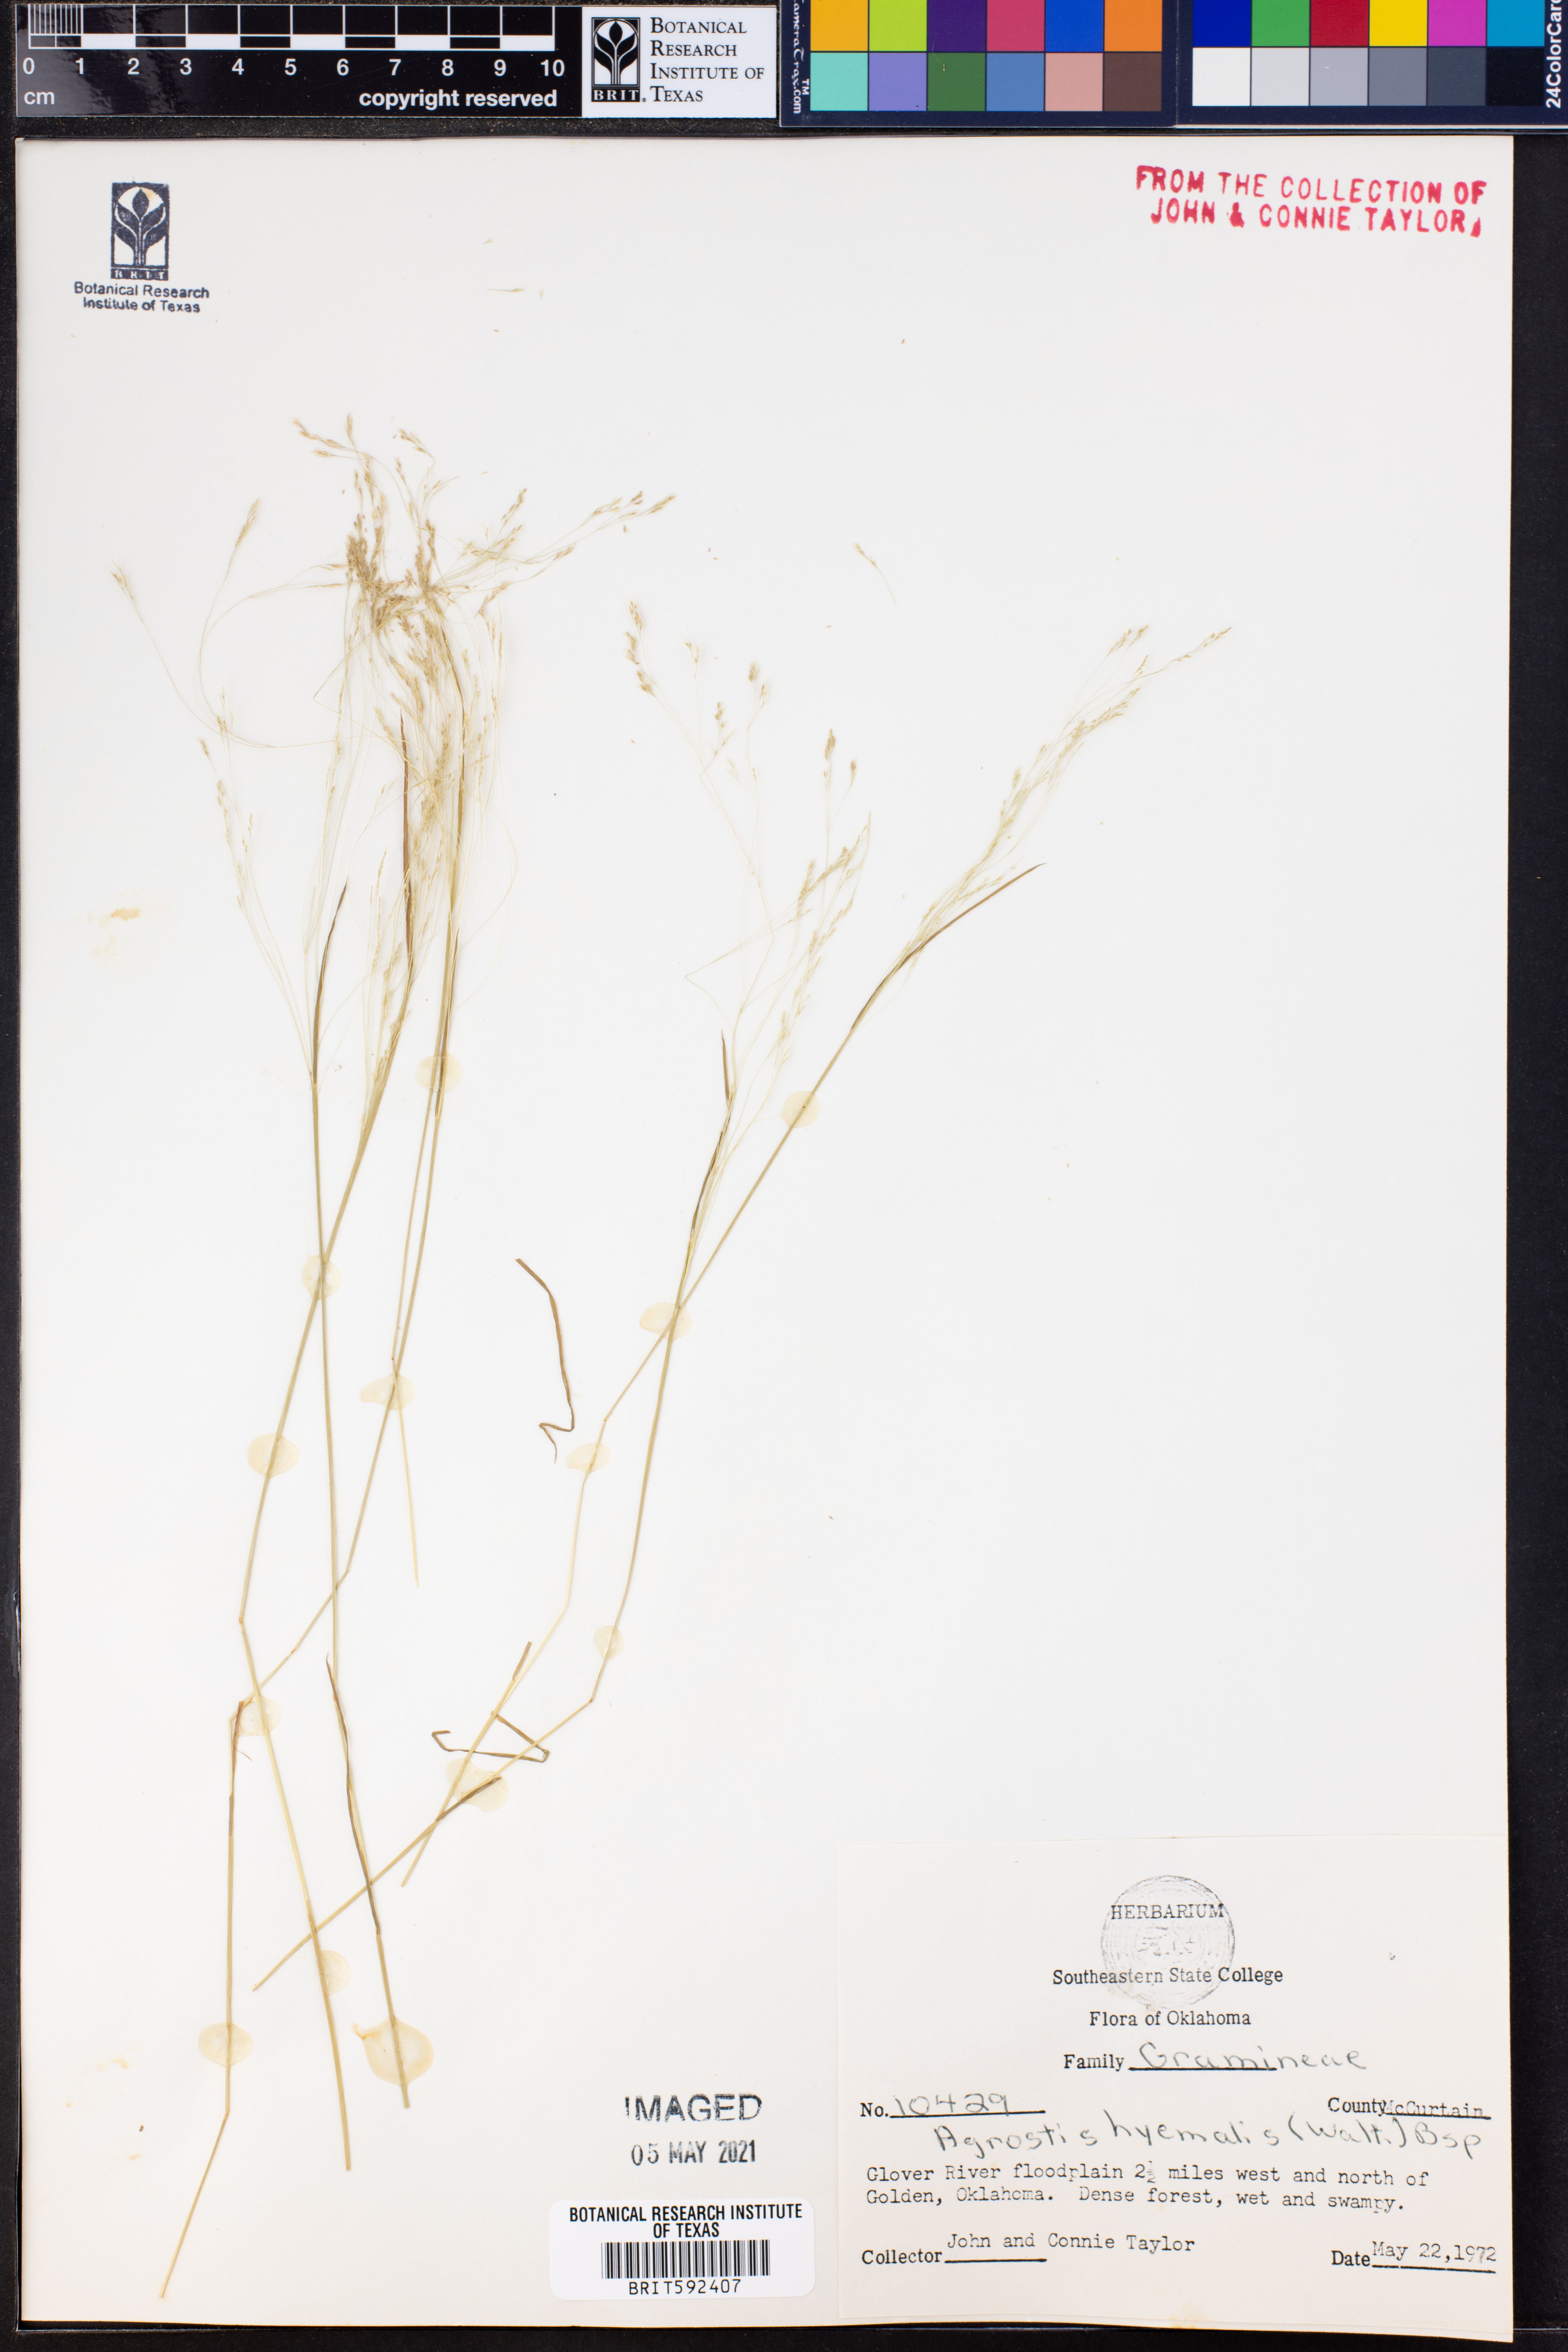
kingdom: Plantae
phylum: Tracheophyta
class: Liliopsida
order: Poales
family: Poaceae
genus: Agrostis
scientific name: Agrostis hyemalis
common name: Small bent
